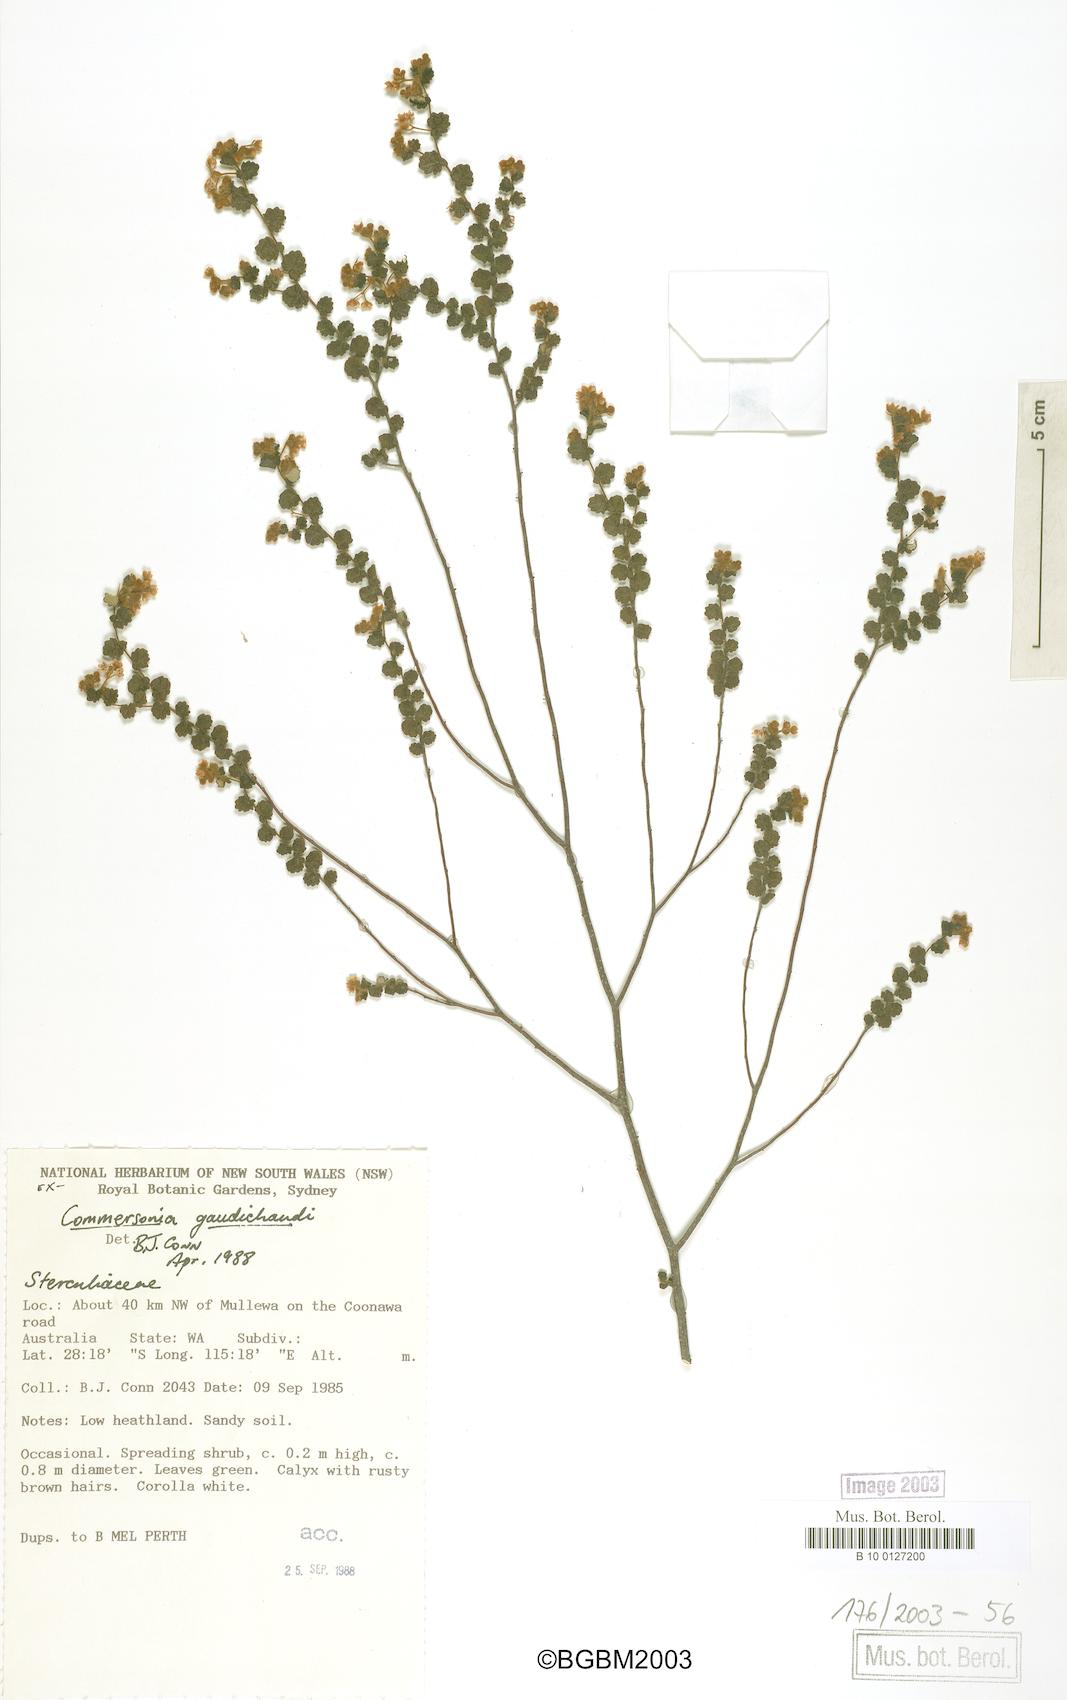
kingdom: Plantae
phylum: Tracheophyta
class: Magnoliopsida
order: Malvales
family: Malvaceae
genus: Androcalva
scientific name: Androcalva gaudichaudii
